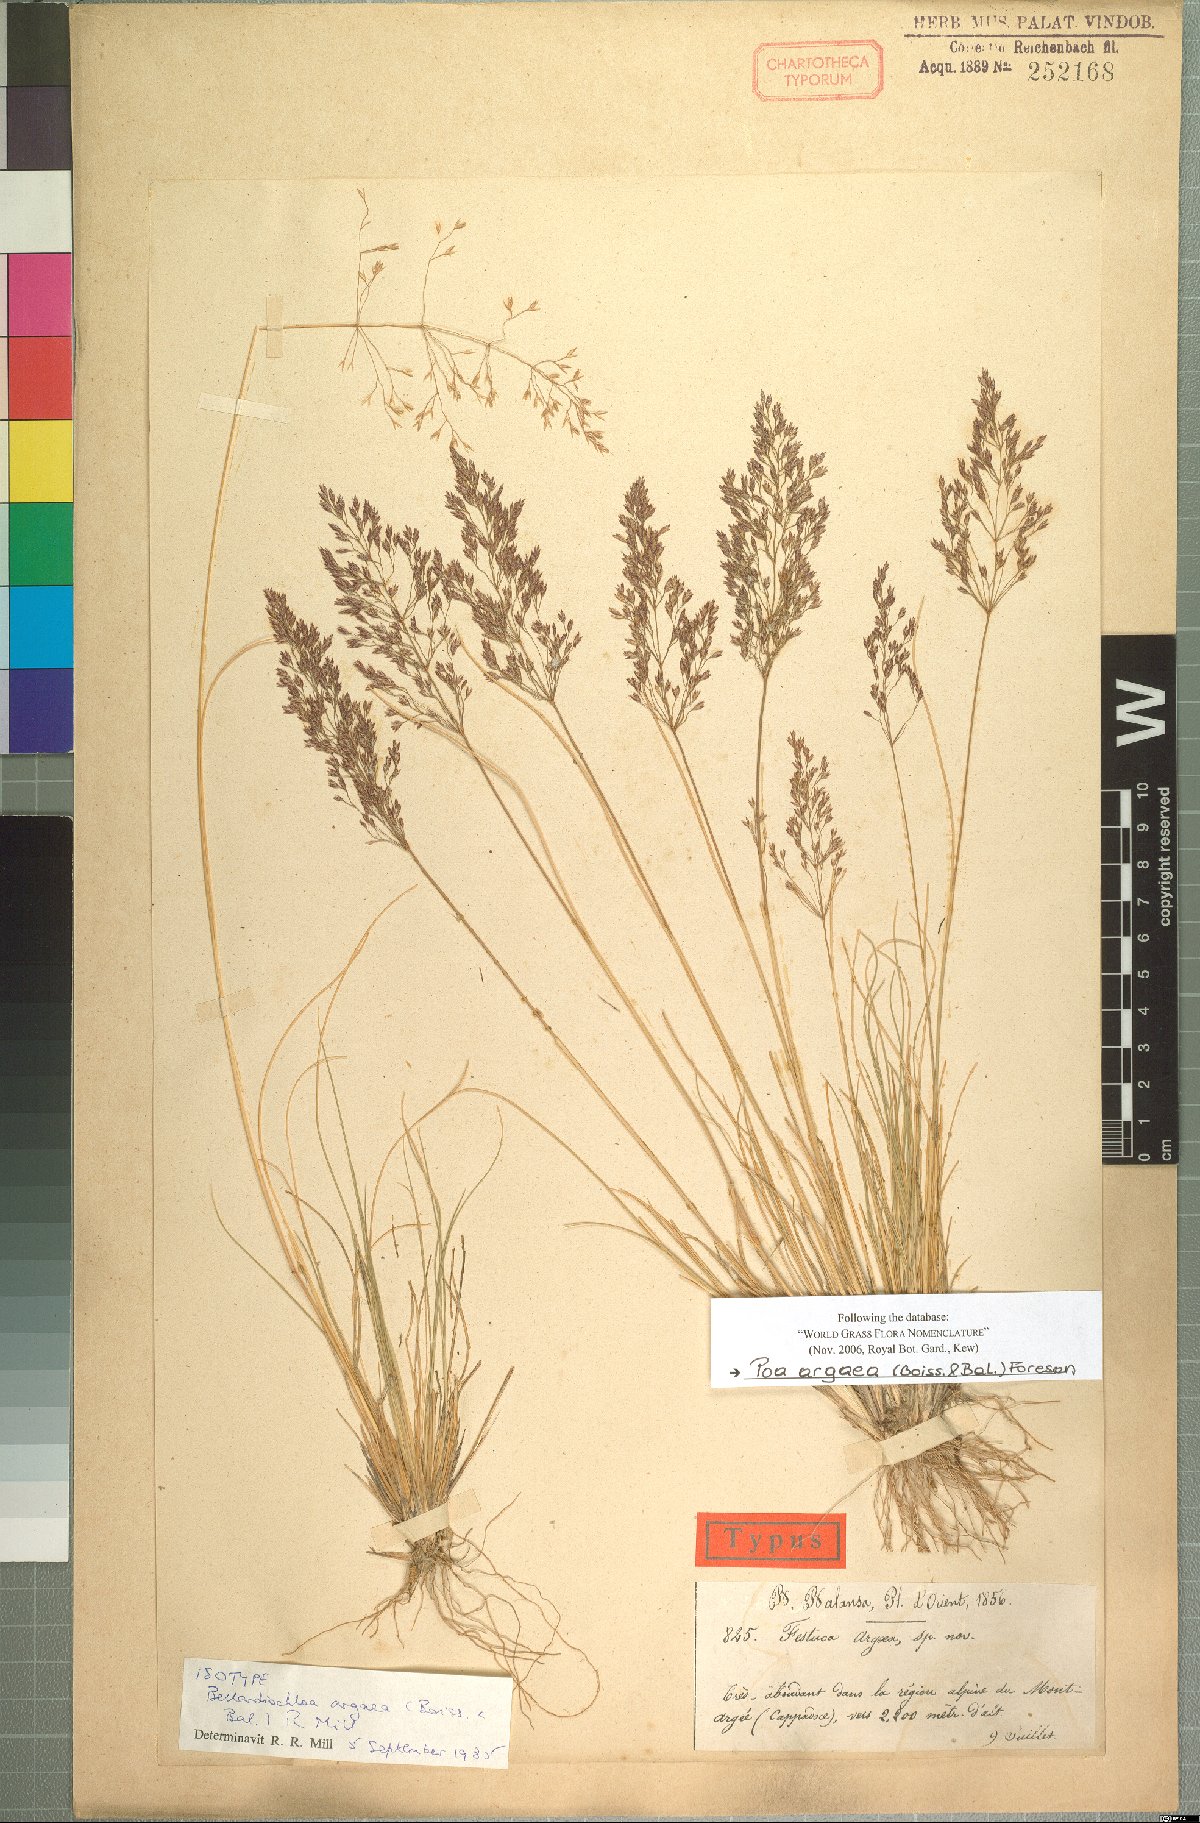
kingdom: Plantae
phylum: Tracheophyta
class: Liliopsida
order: Poales
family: Poaceae
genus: Bellardiochloa
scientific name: Bellardiochloa argaea
